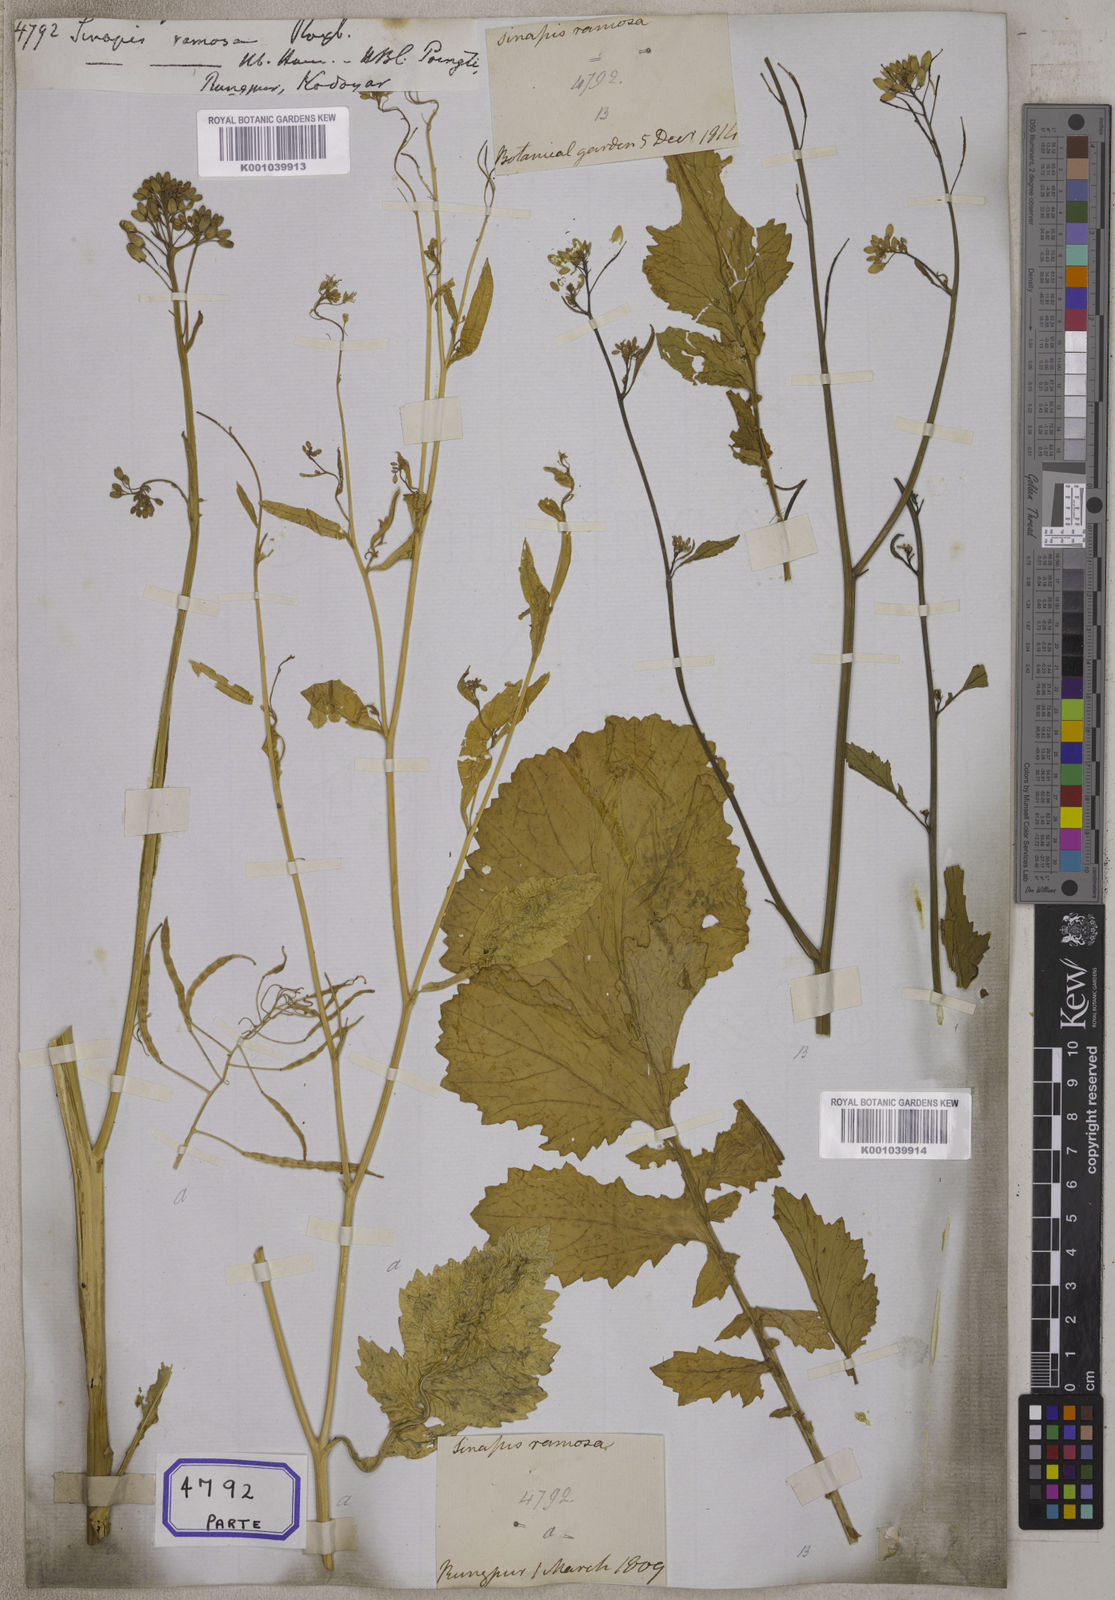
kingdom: Plantae
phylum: Tracheophyta
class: Magnoliopsida
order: Brassicales
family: Brassicaceae
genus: Brassica
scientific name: Brassica juncea
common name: Brown mustard
